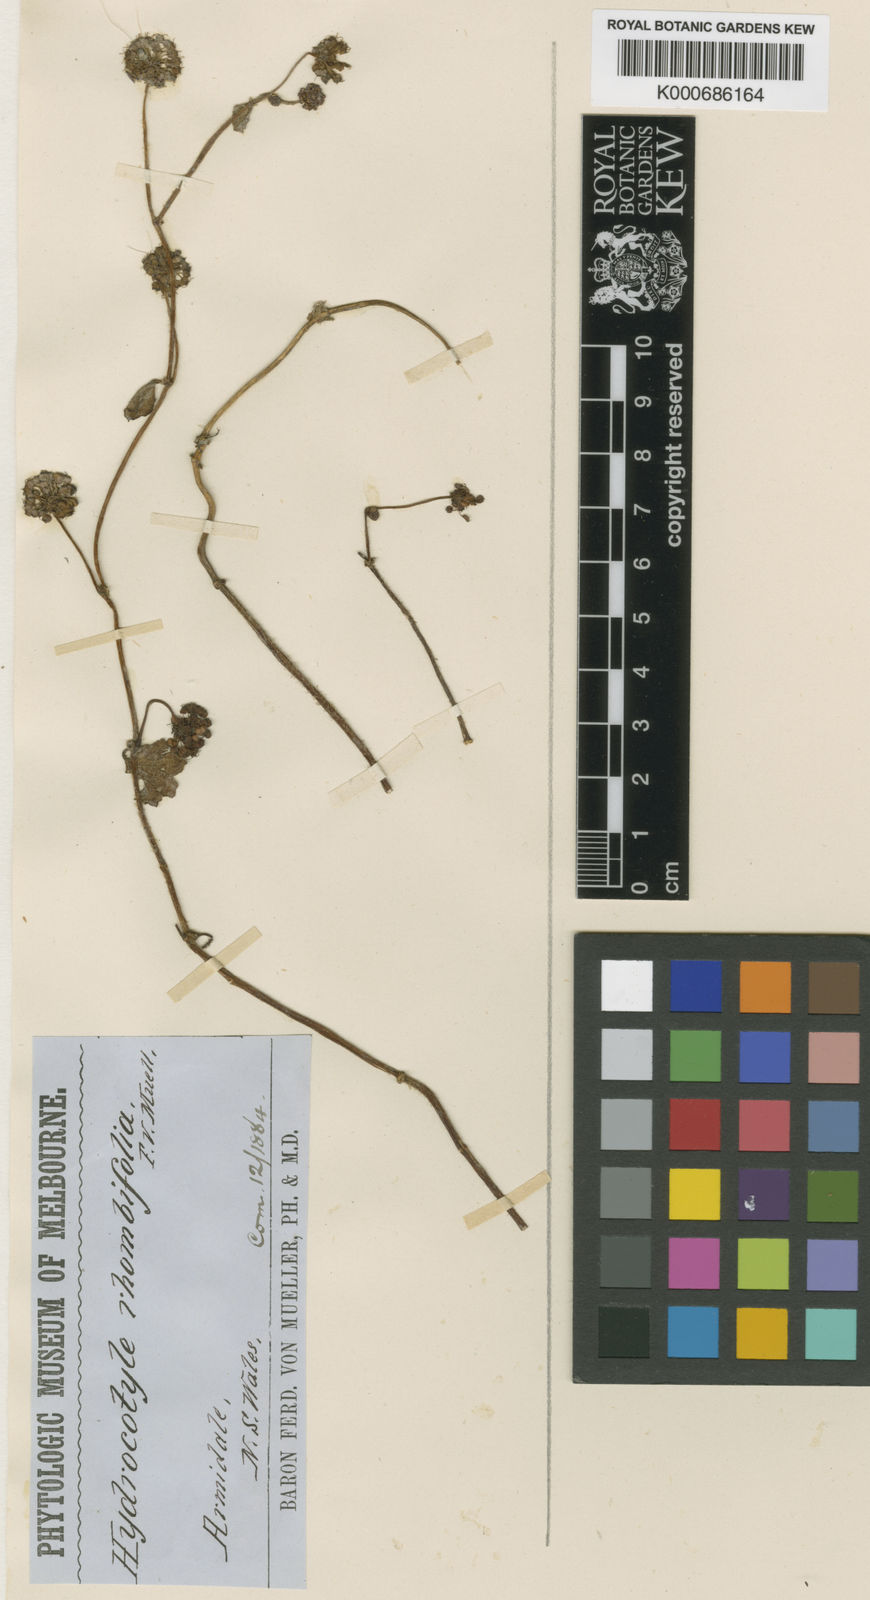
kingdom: Plantae
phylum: Tracheophyta
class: Magnoliopsida
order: Apiales
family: Araliaceae
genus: Hydrocotyle
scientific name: Hydrocotyle rhombifolia
